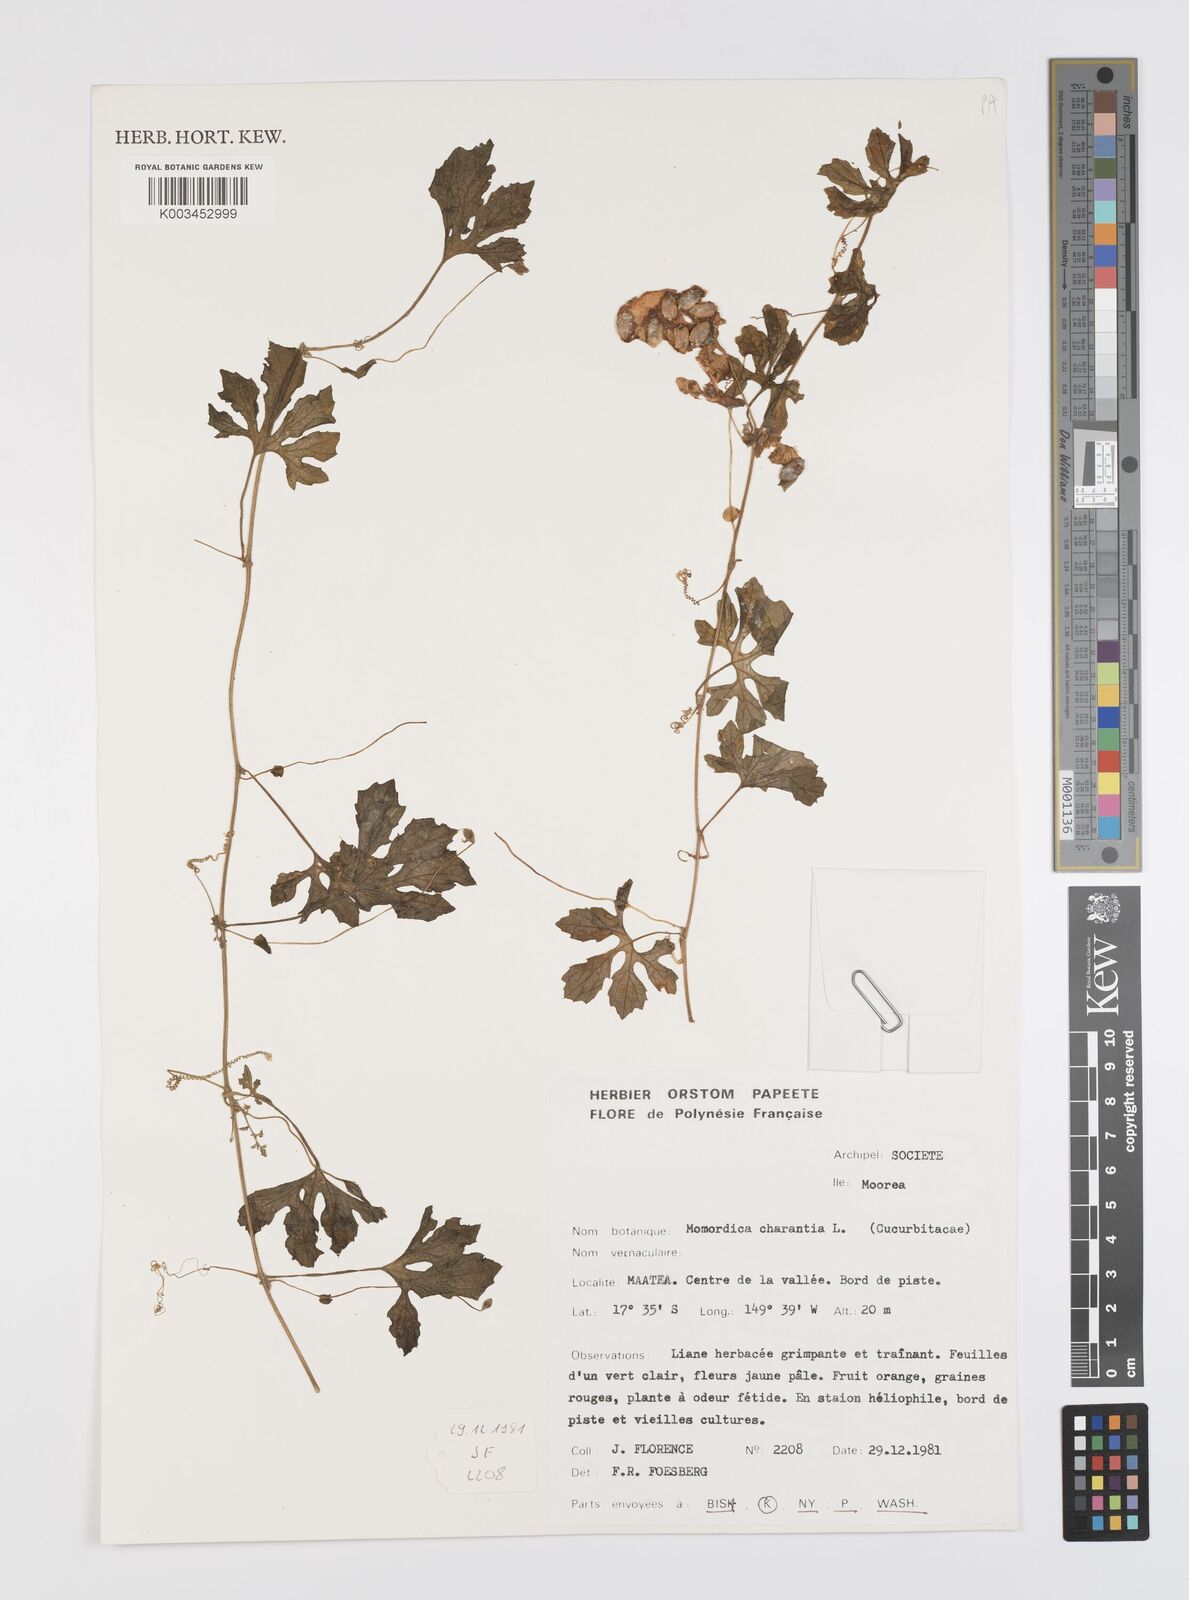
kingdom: Plantae
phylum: Tracheophyta
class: Magnoliopsida
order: Cucurbitales
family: Cucurbitaceae
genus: Momordica
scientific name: Momordica charantia
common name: Balsampear
